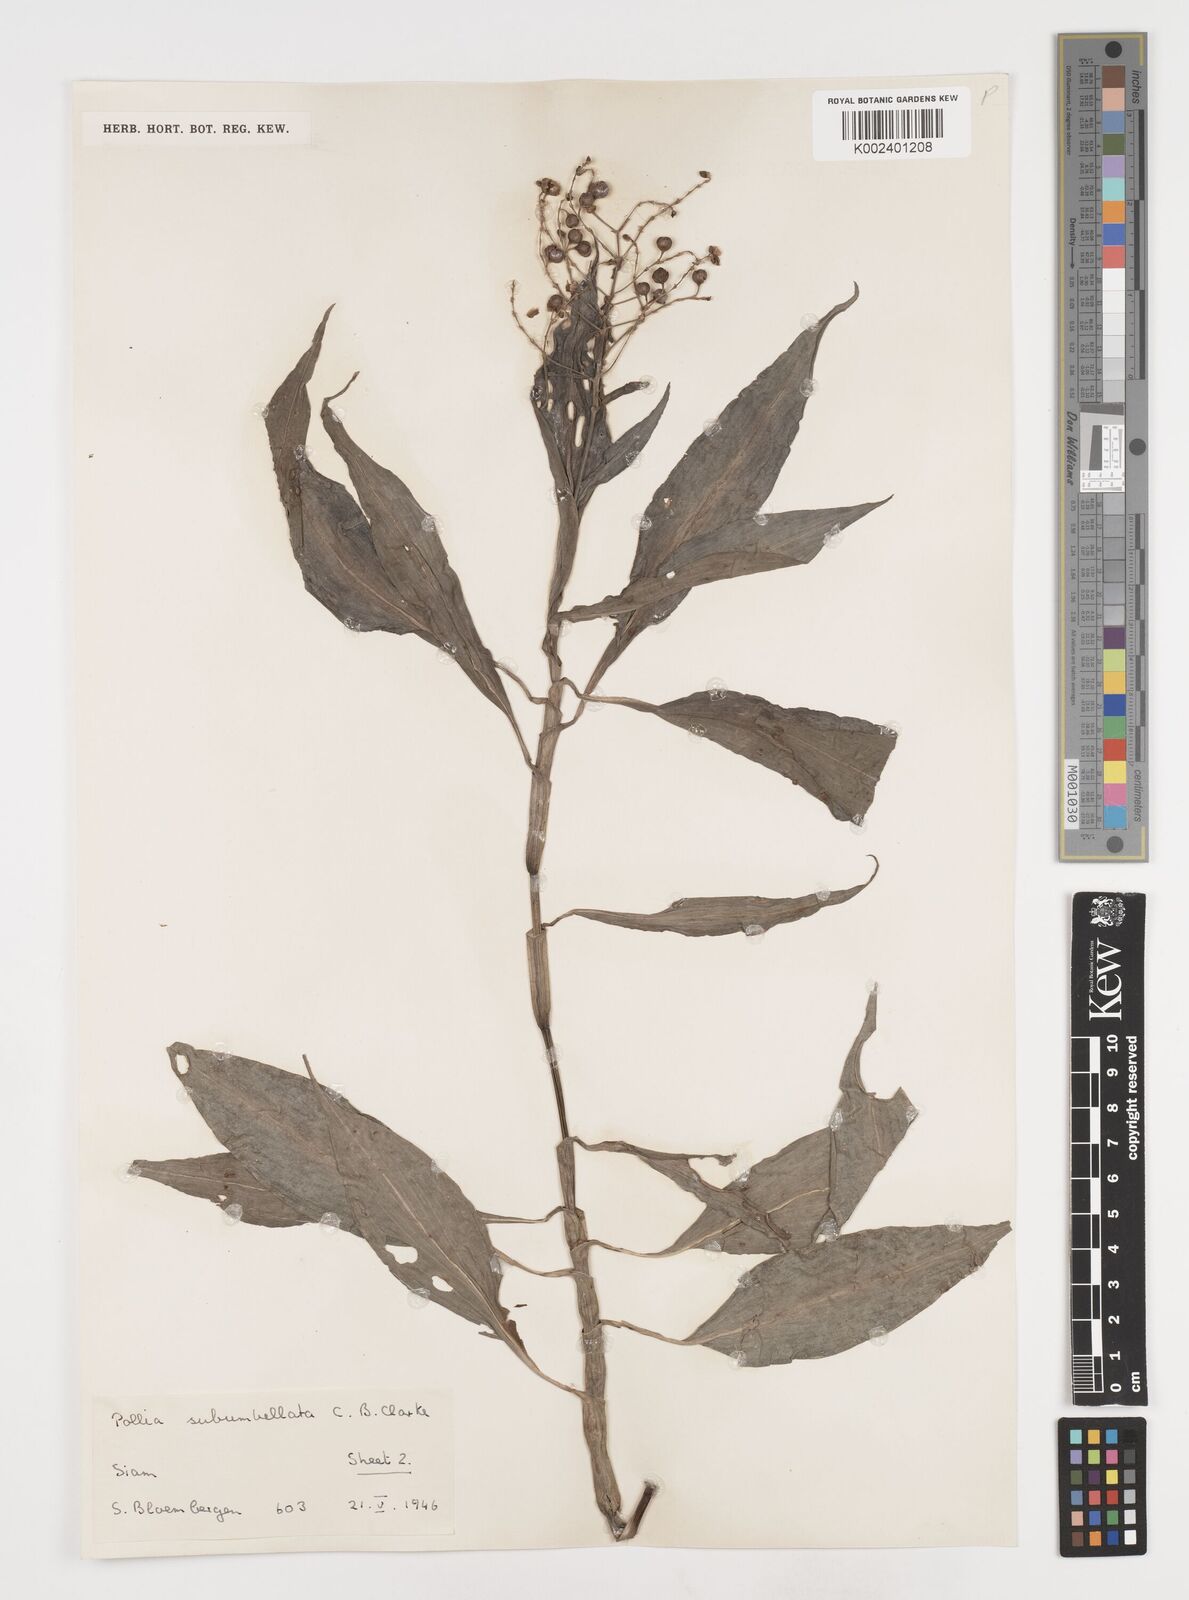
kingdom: Plantae
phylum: Tracheophyta
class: Liliopsida
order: Commelinales
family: Commelinaceae
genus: Pollia
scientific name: Pollia secundiflora
